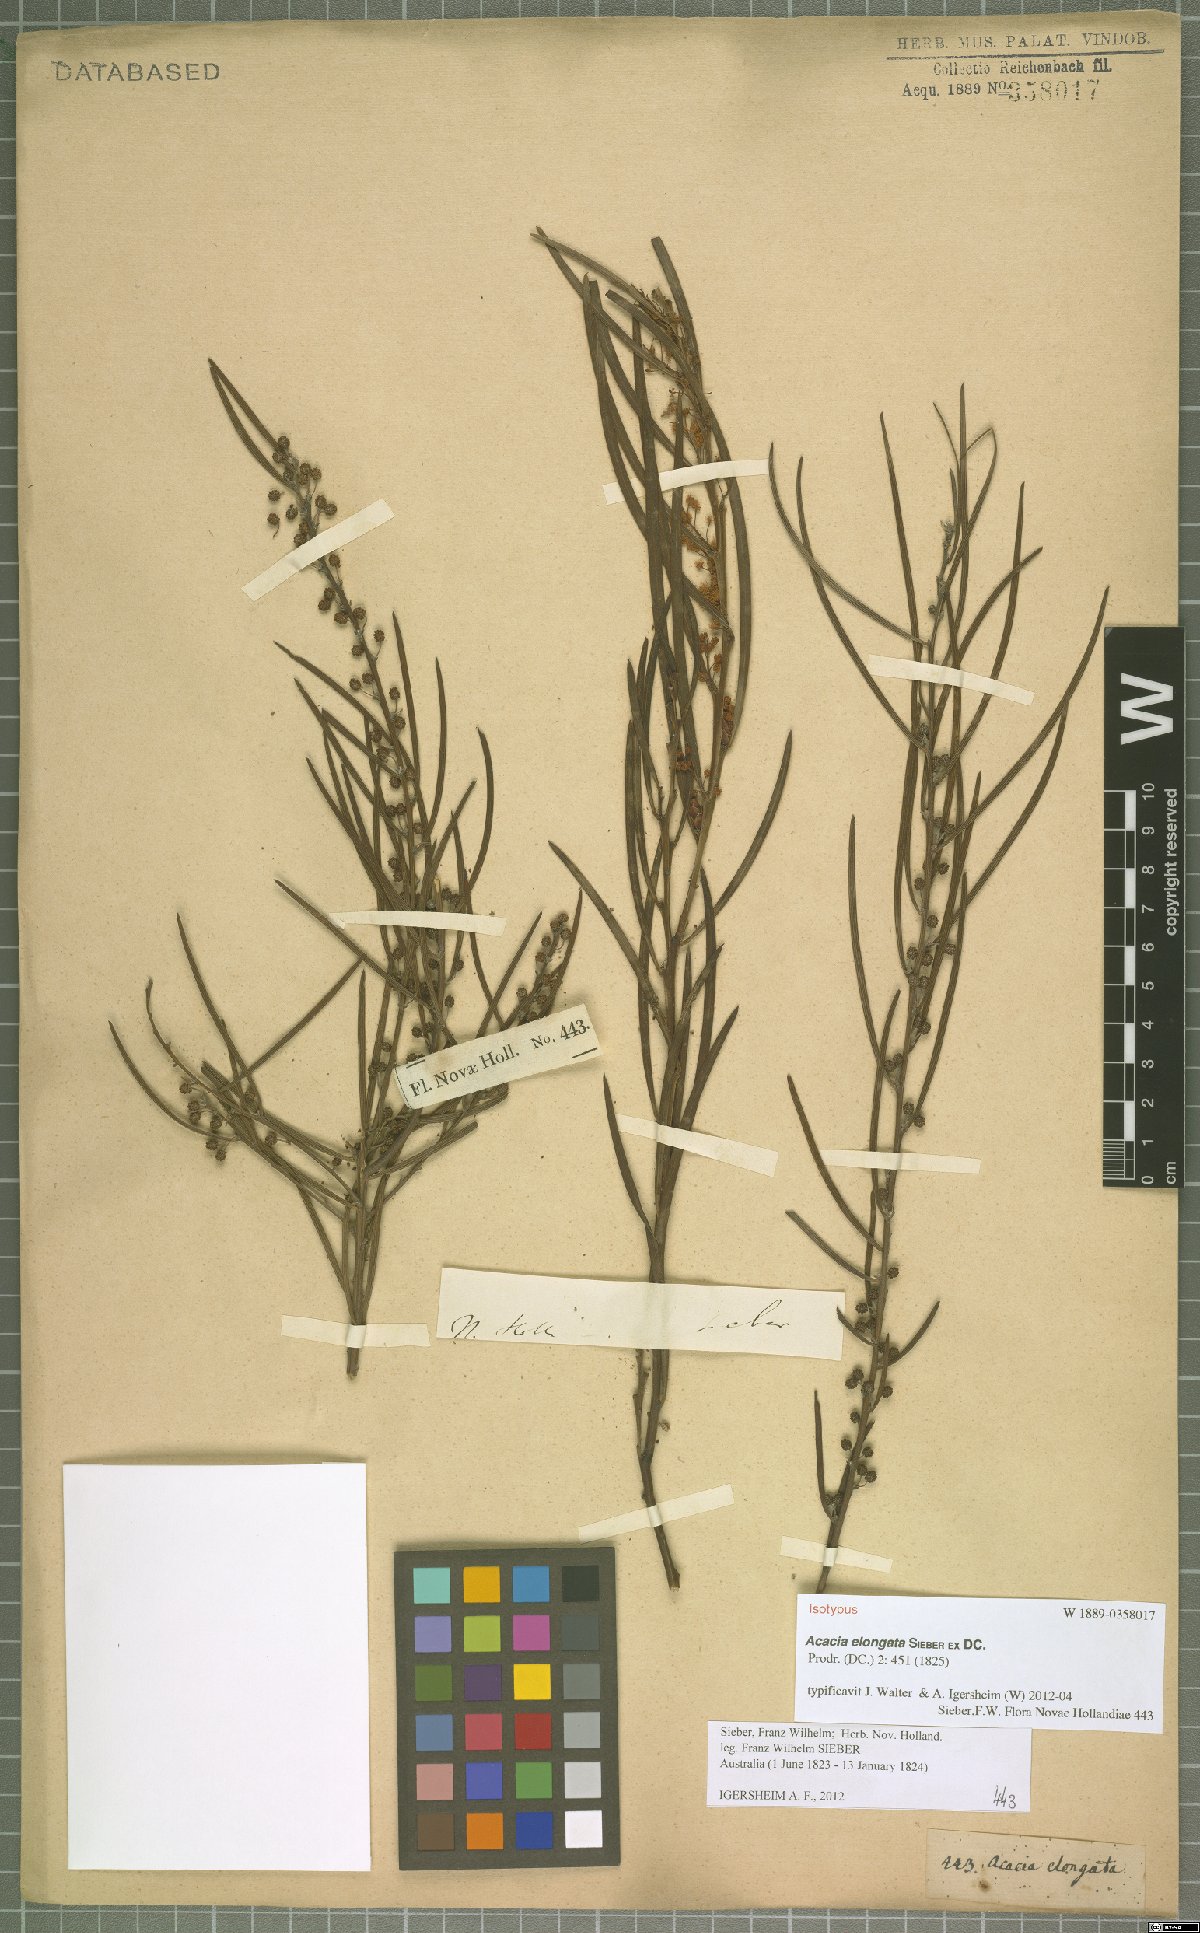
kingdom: Plantae
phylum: Tracheophyta
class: Magnoliopsida
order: Fabales
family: Fabaceae
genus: Acacia
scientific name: Acacia elongata
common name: Swamp wattle
